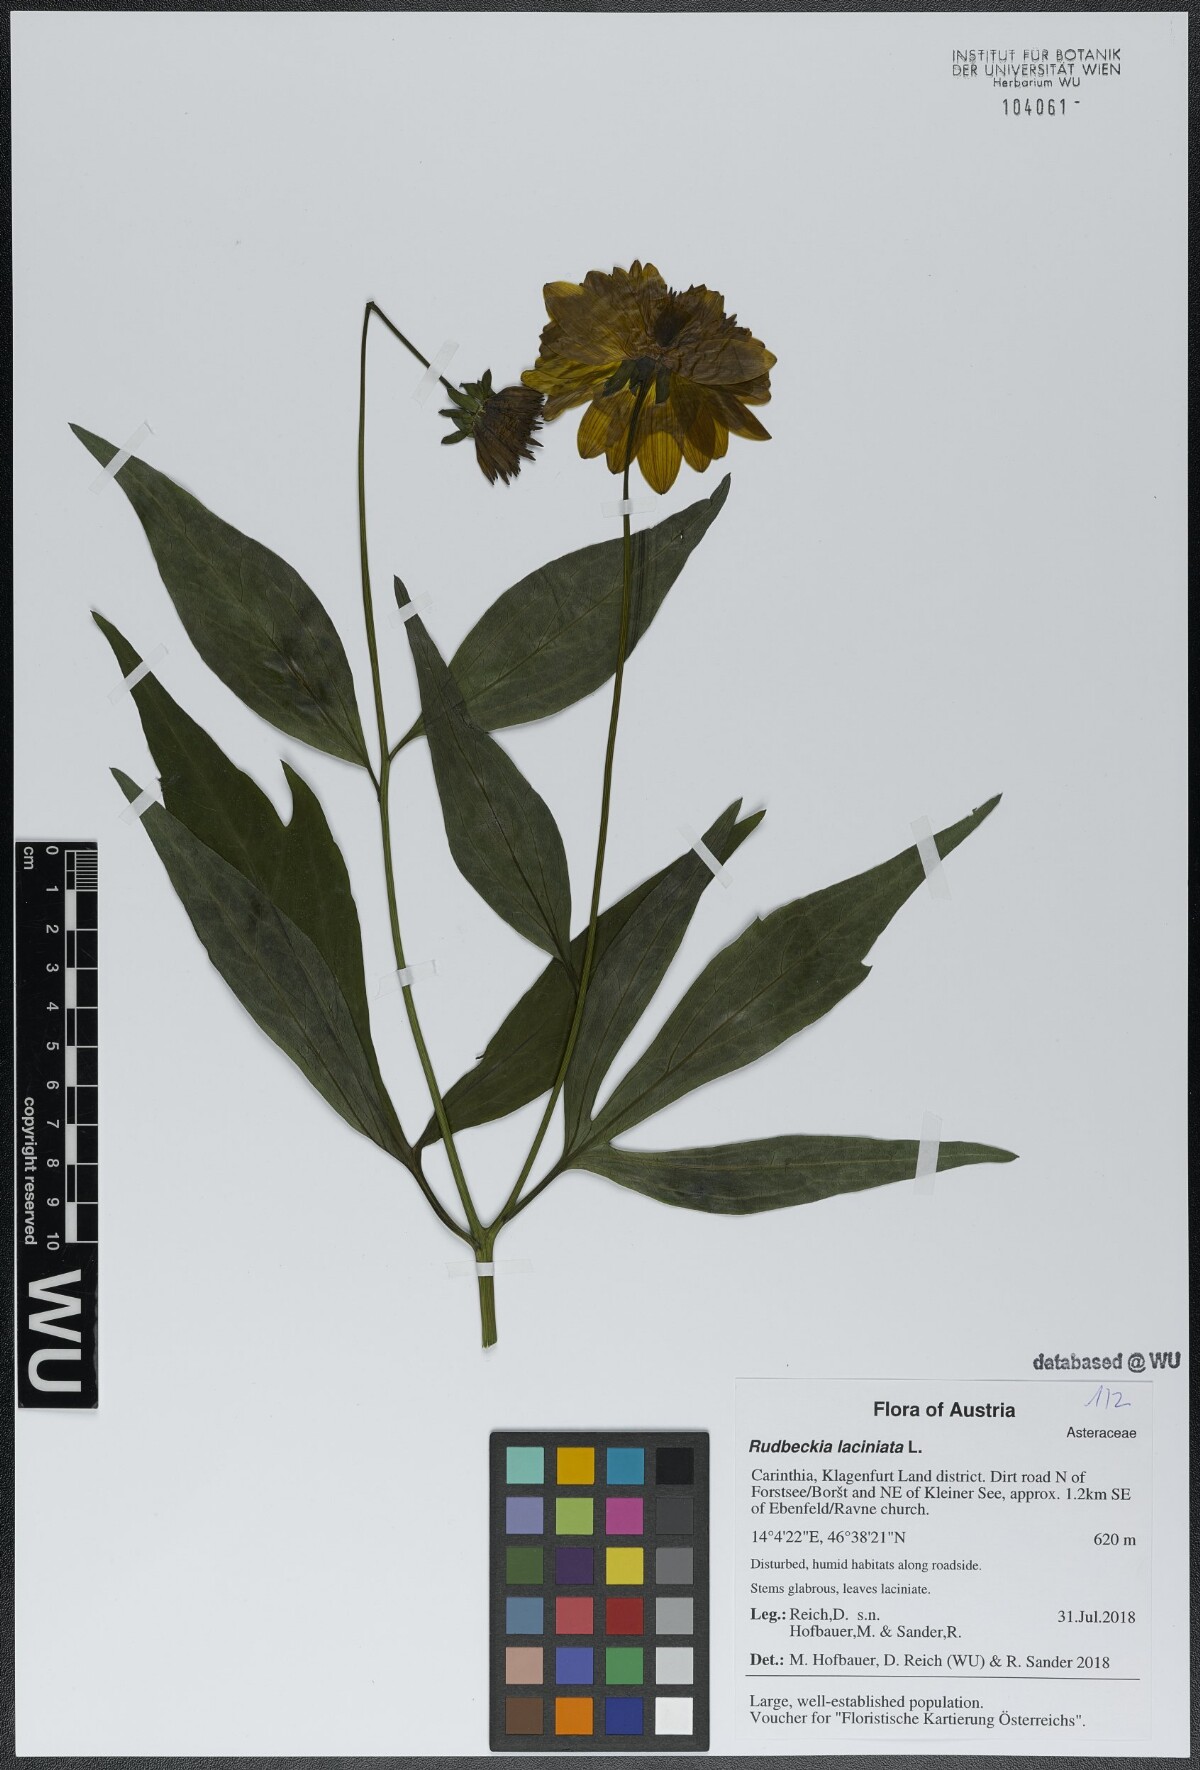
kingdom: Plantae
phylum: Tracheophyta
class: Magnoliopsida
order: Asterales
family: Asteraceae
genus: Rudbeckia
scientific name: Rudbeckia laciniata
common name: Coneflower
